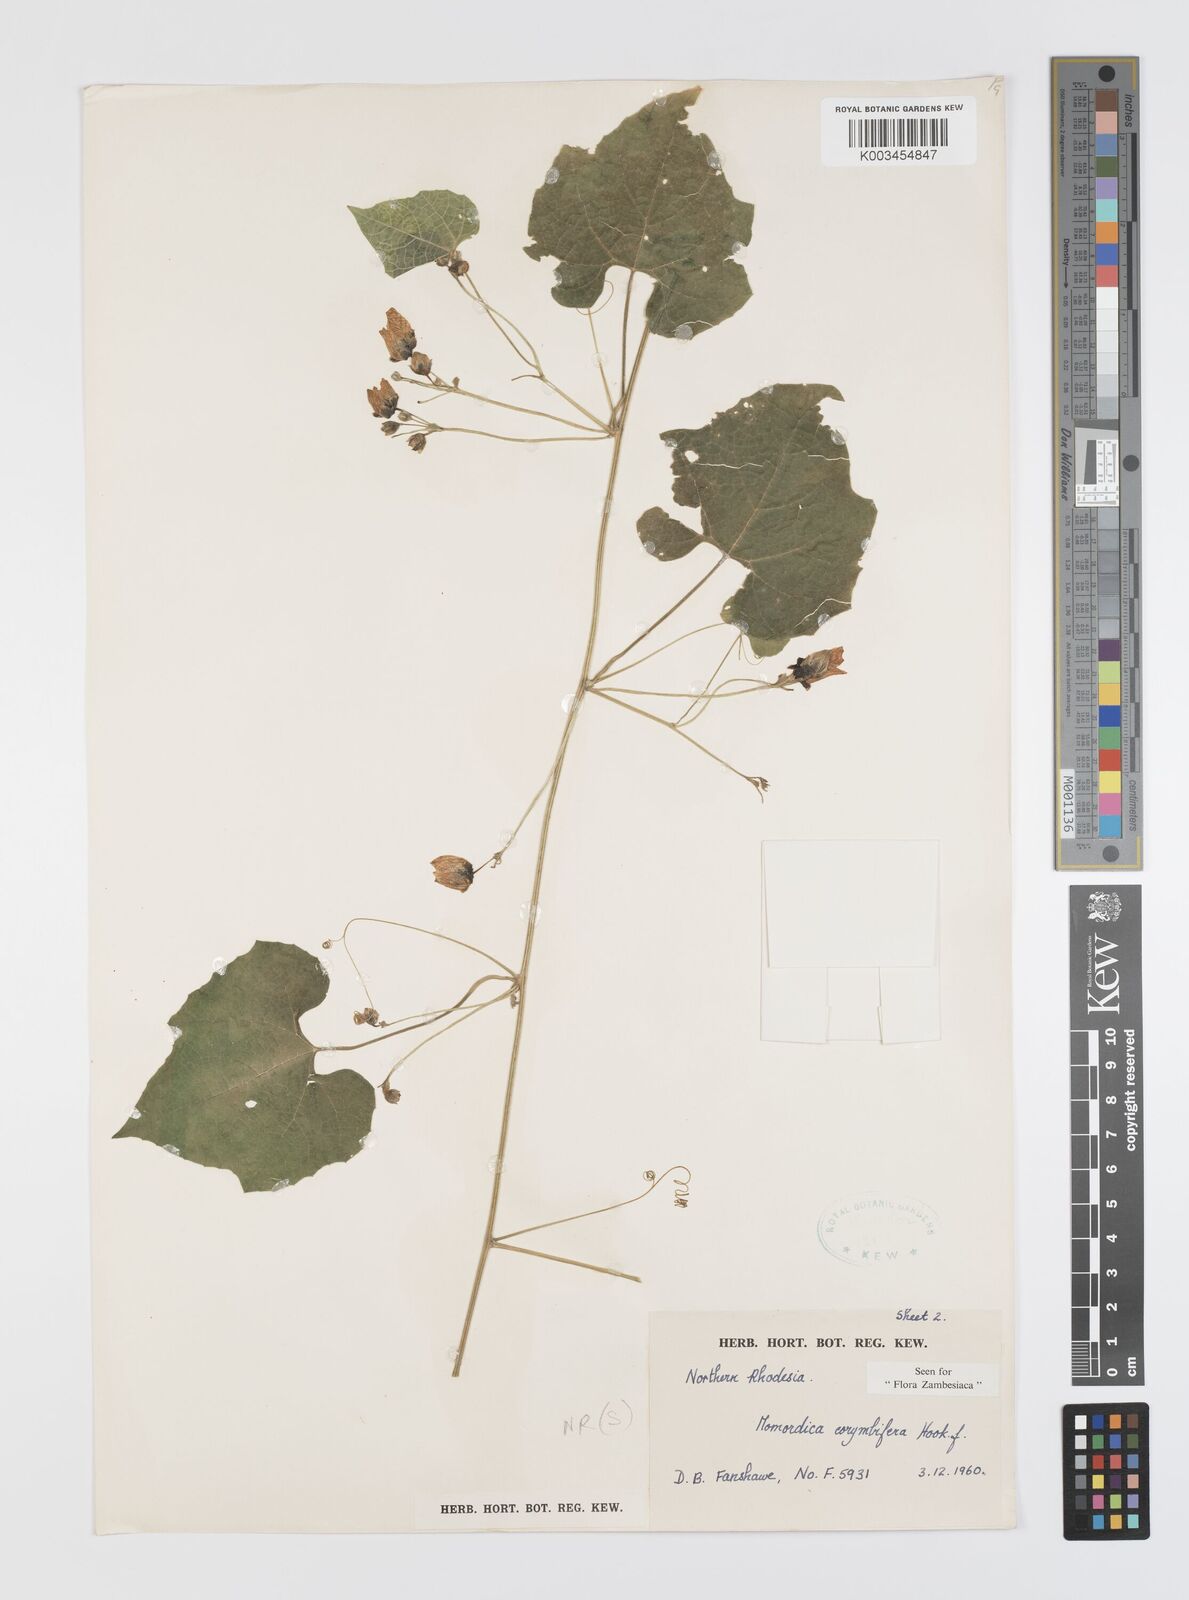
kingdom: Plantae
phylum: Tracheophyta
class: Magnoliopsida
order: Cucurbitales
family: Cucurbitaceae
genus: Momordica
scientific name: Momordica corymbifera
